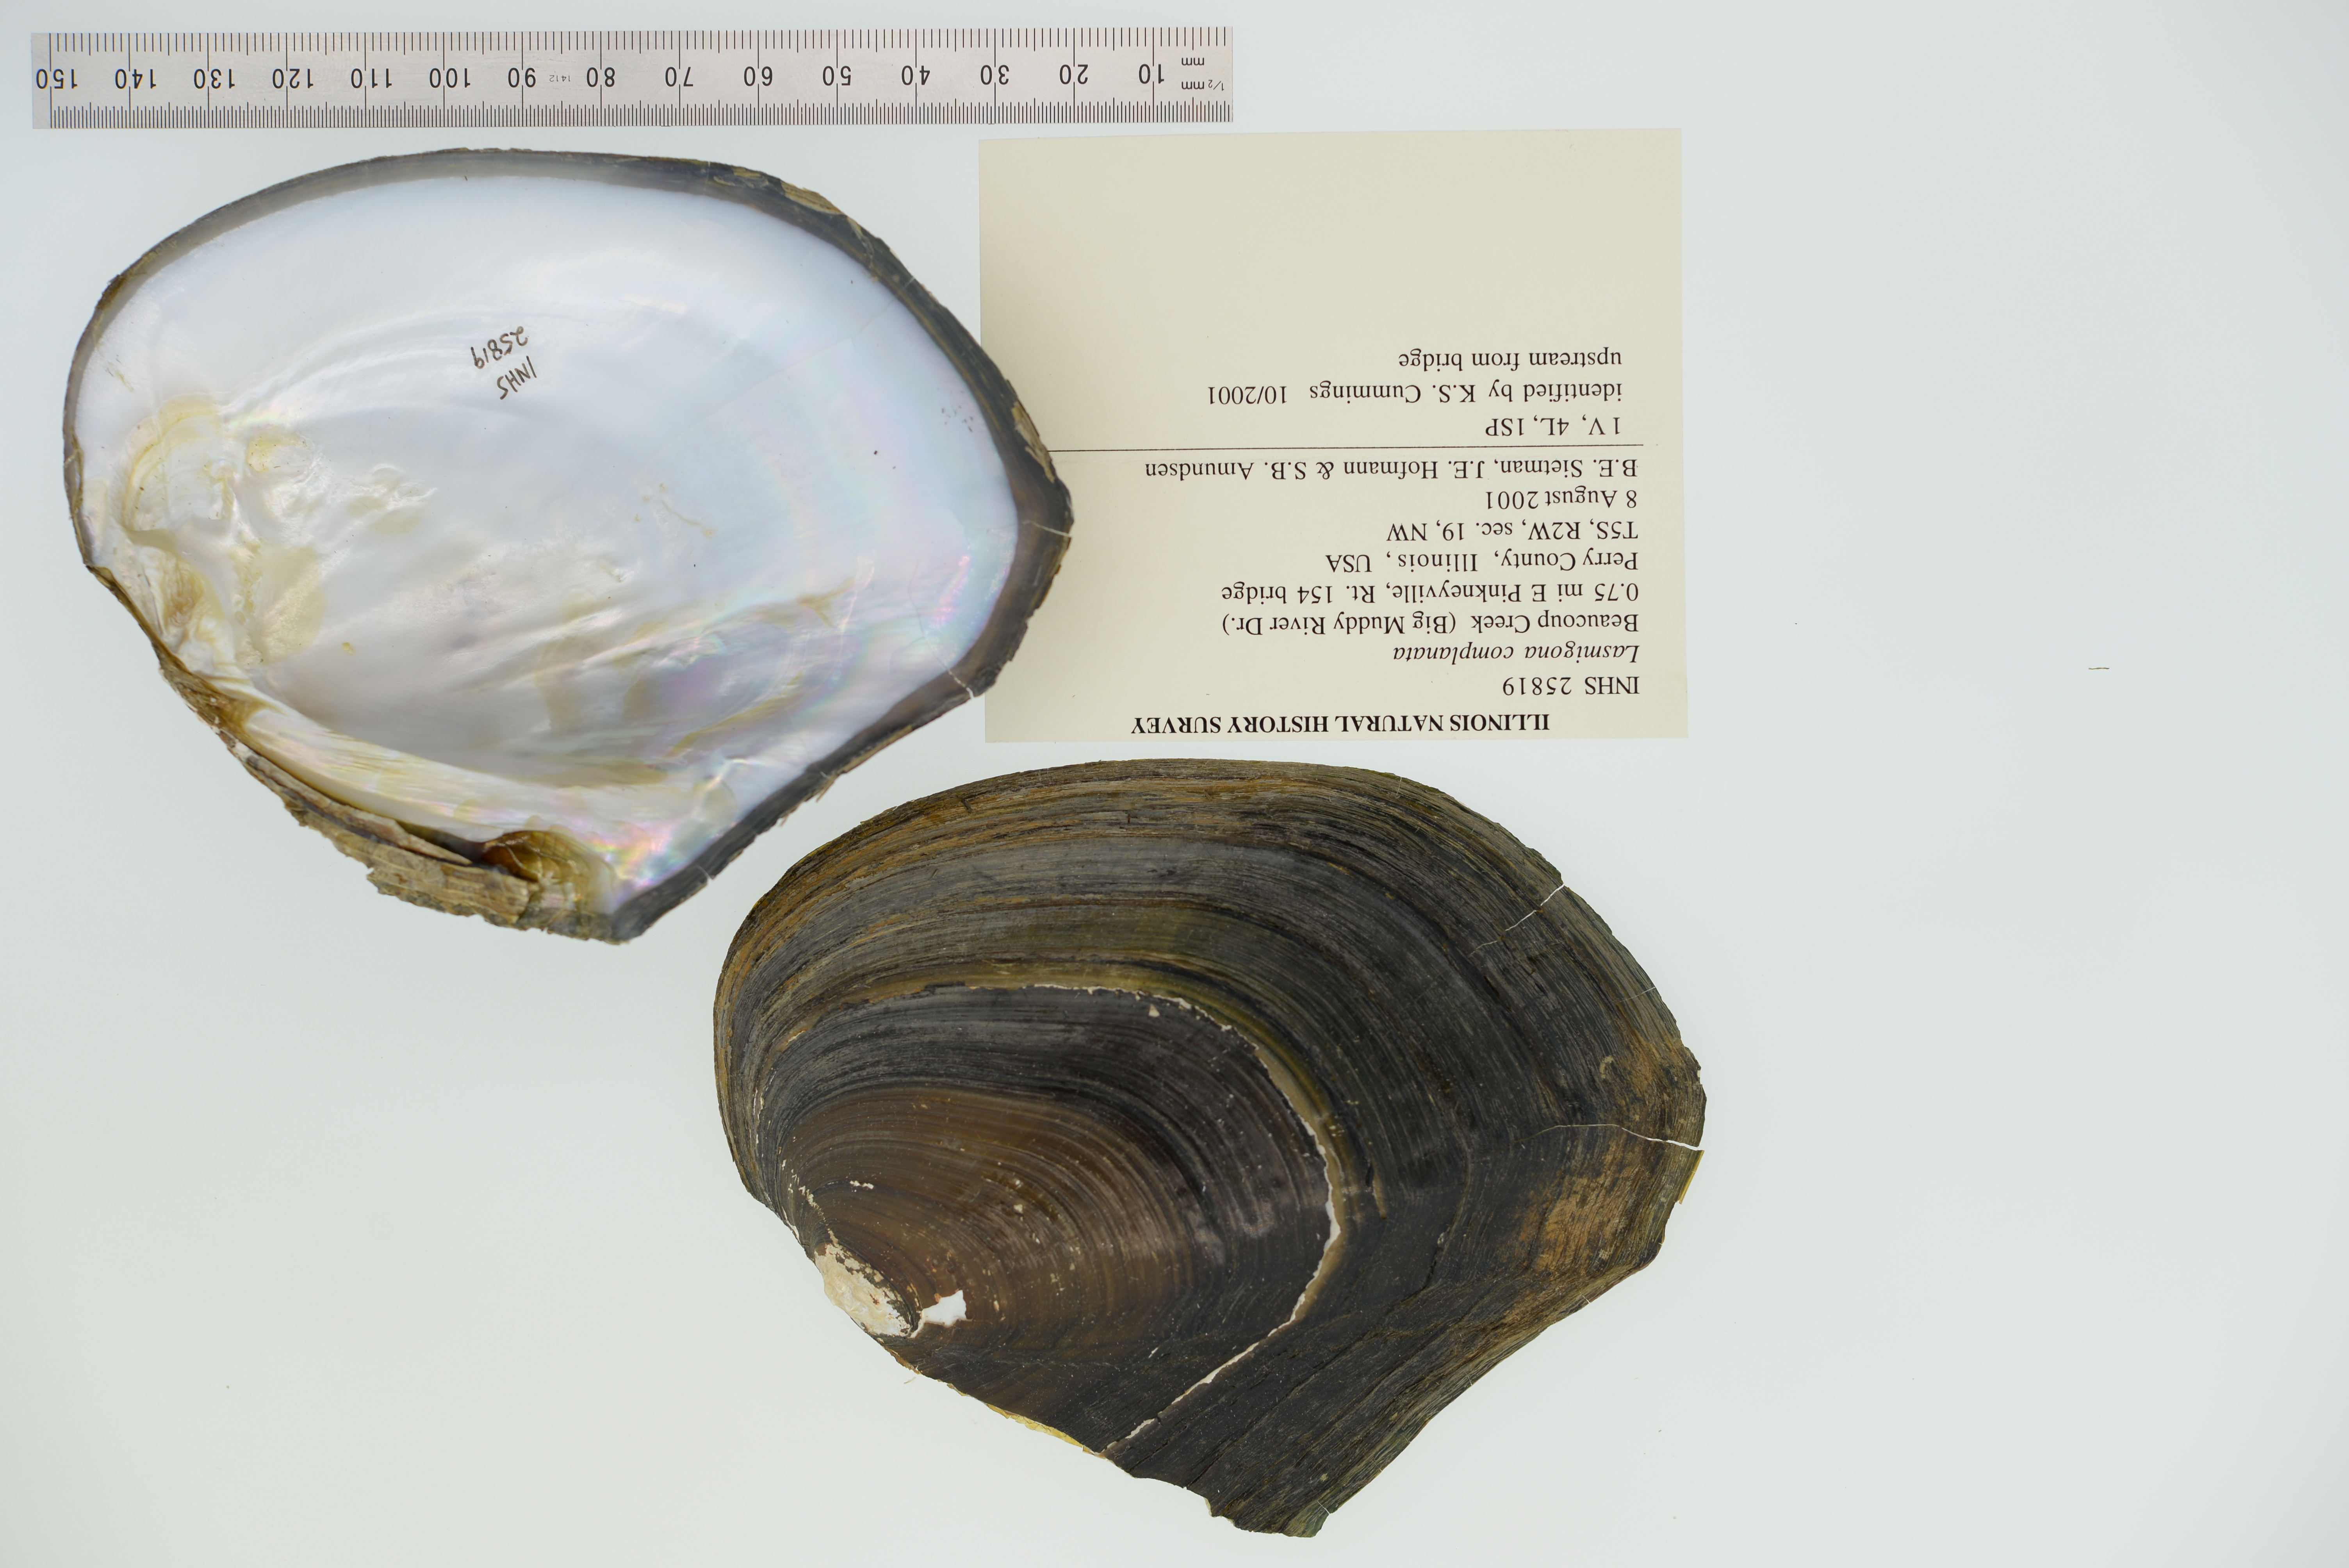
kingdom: Animalia
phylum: Mollusca
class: Bivalvia
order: Unionida
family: Unionidae
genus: Lasmigona
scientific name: Lasmigona complanata
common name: White heelsplitter
